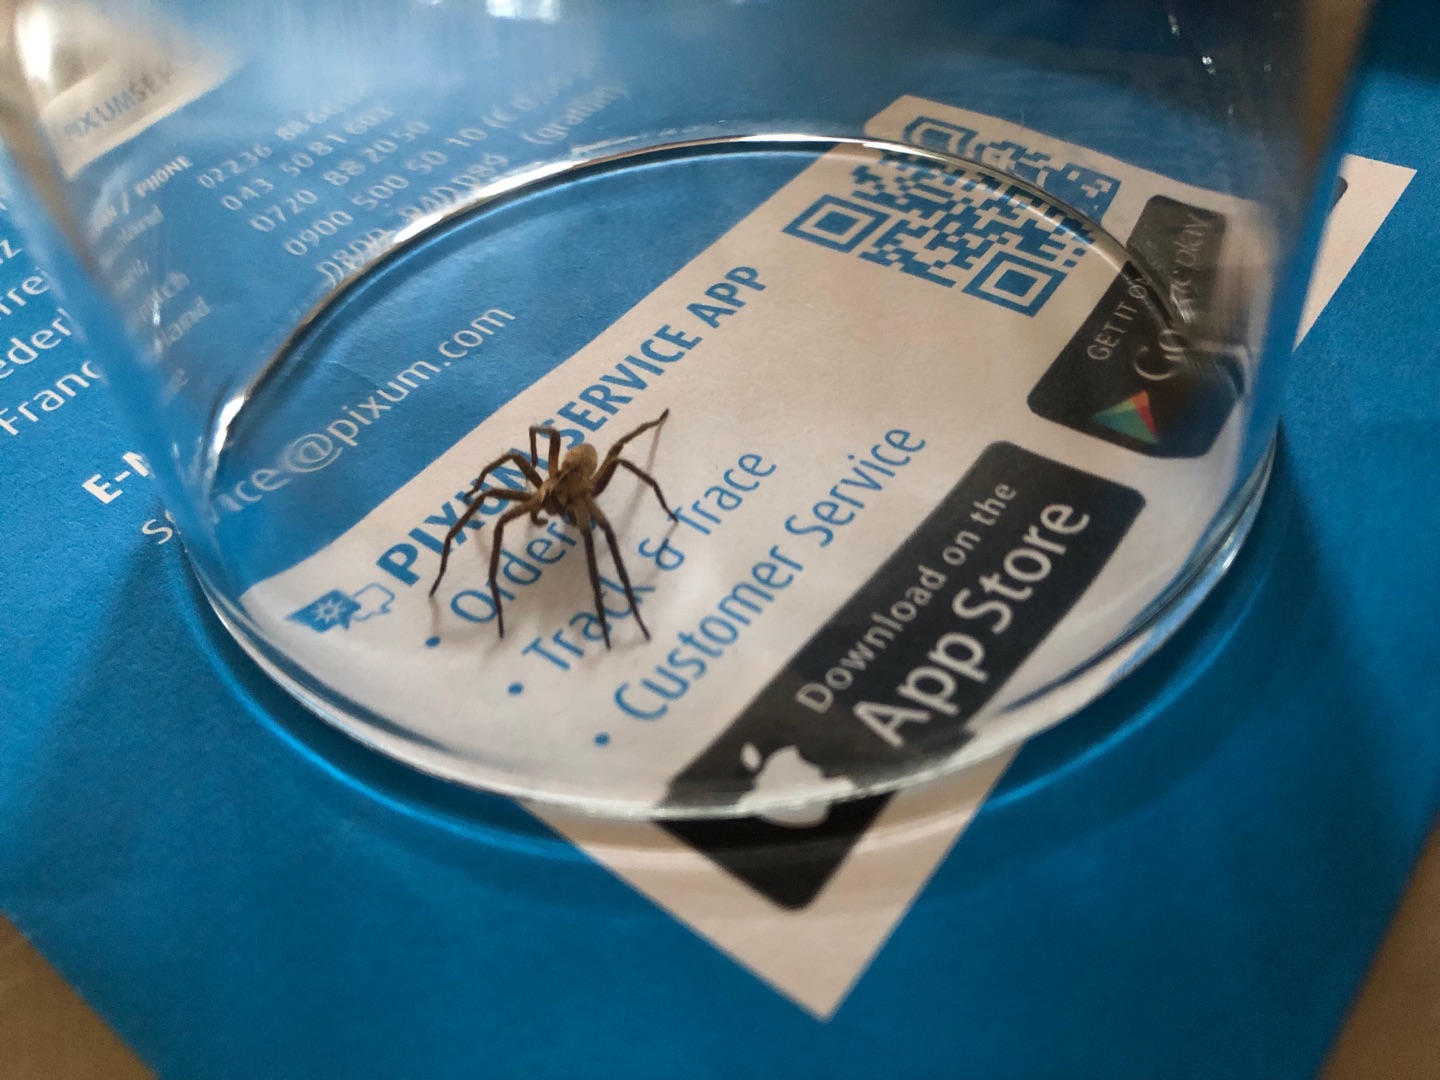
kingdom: Animalia
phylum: Arthropoda
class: Arachnida
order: Araneae
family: Pisauridae
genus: Pisaura
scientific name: Pisaura mirabilis
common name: Almindelig rovedderkop
